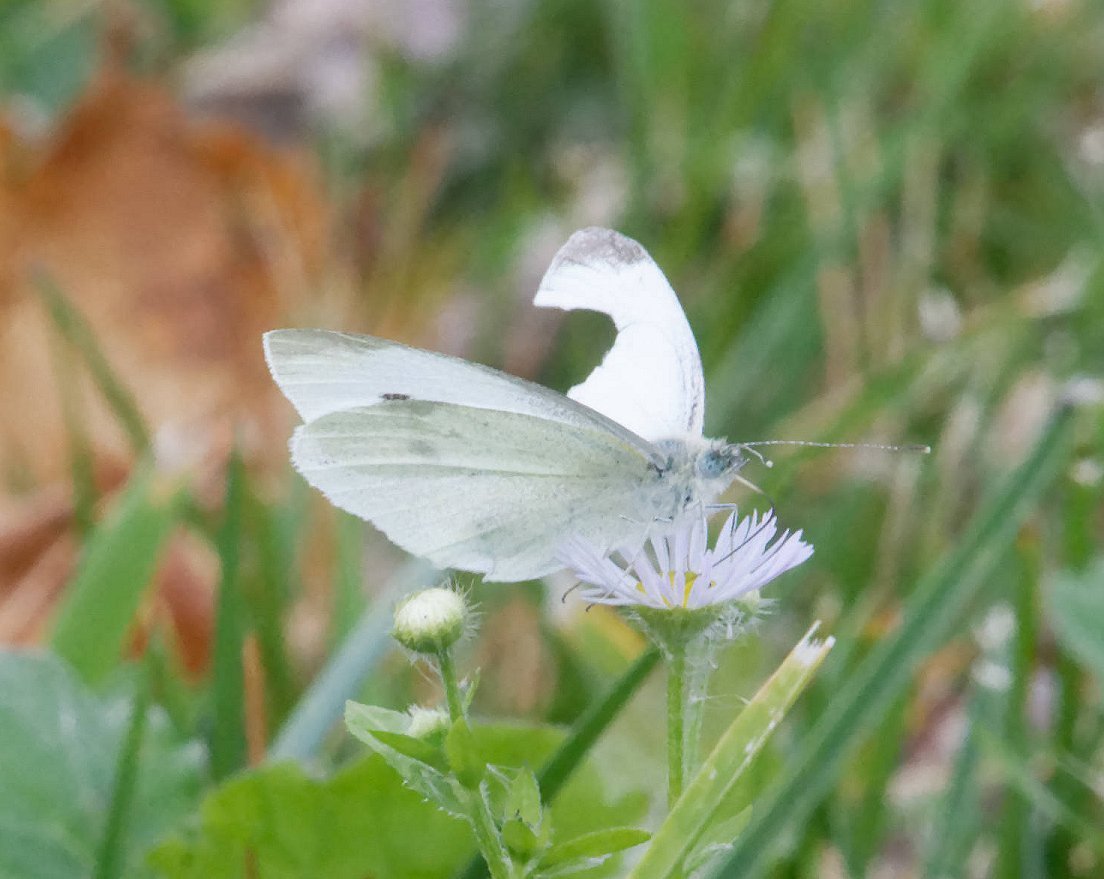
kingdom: Animalia
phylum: Arthropoda
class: Insecta
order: Lepidoptera
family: Pieridae
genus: Pieris
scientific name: Pieris rapae
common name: Cabbage White
